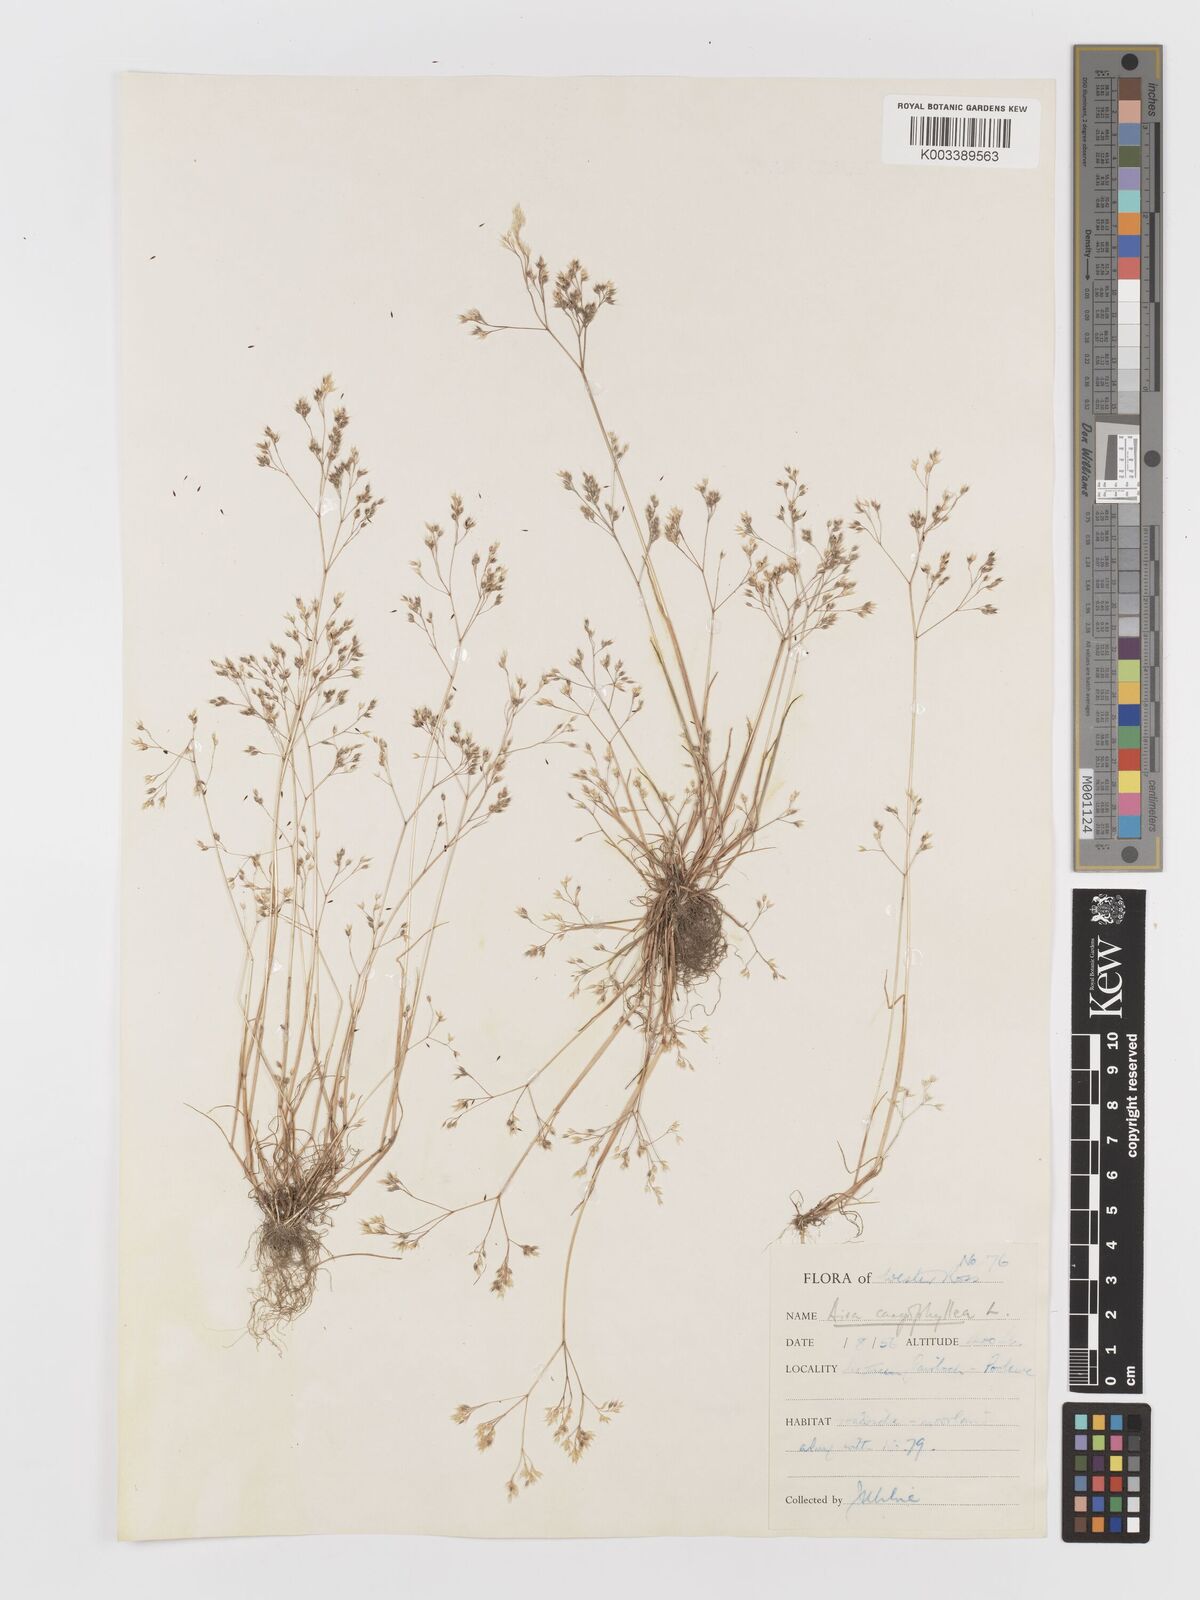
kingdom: Plantae
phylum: Tracheophyta
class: Liliopsida
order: Poales
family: Poaceae
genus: Aira
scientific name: Aira caryophyllea
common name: Silver hairgrass
